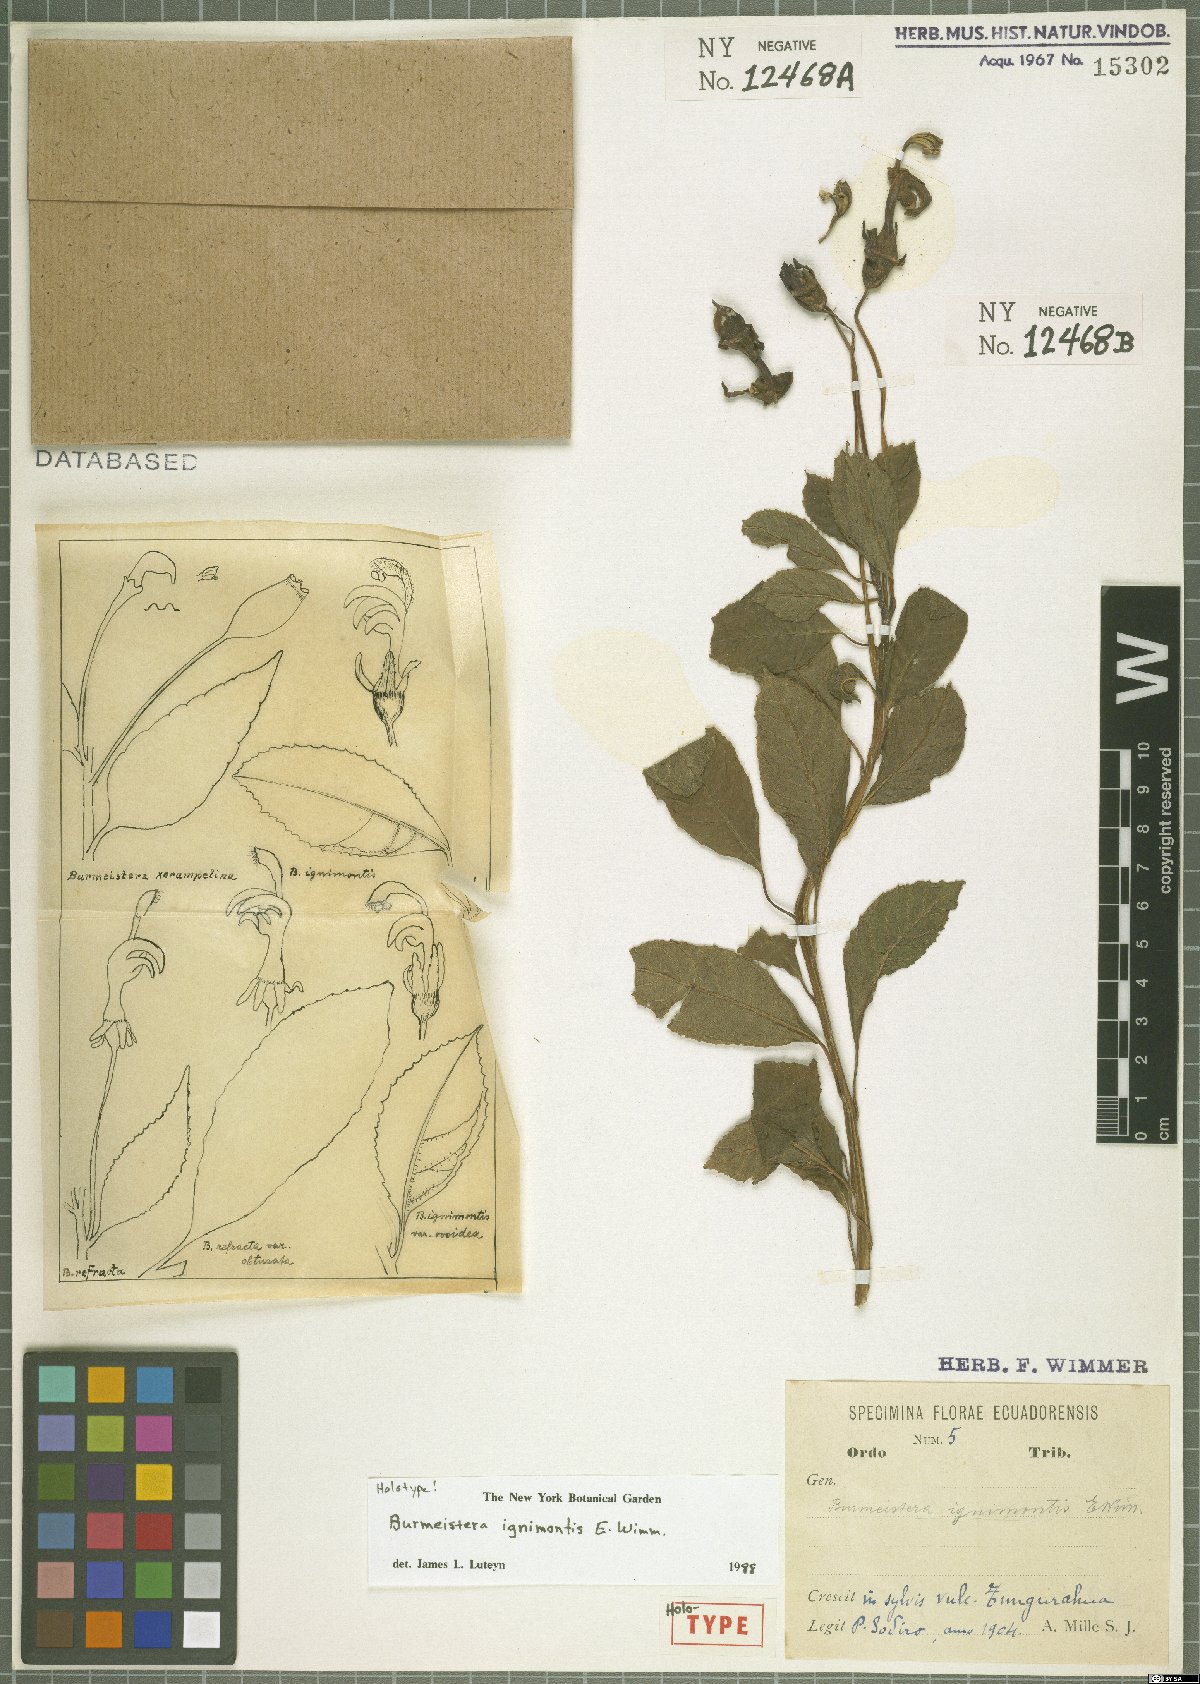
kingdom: Plantae
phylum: Tracheophyta
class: Magnoliopsida
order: Asterales
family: Campanulaceae
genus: Burmeistera
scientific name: Burmeistera ignimontis
